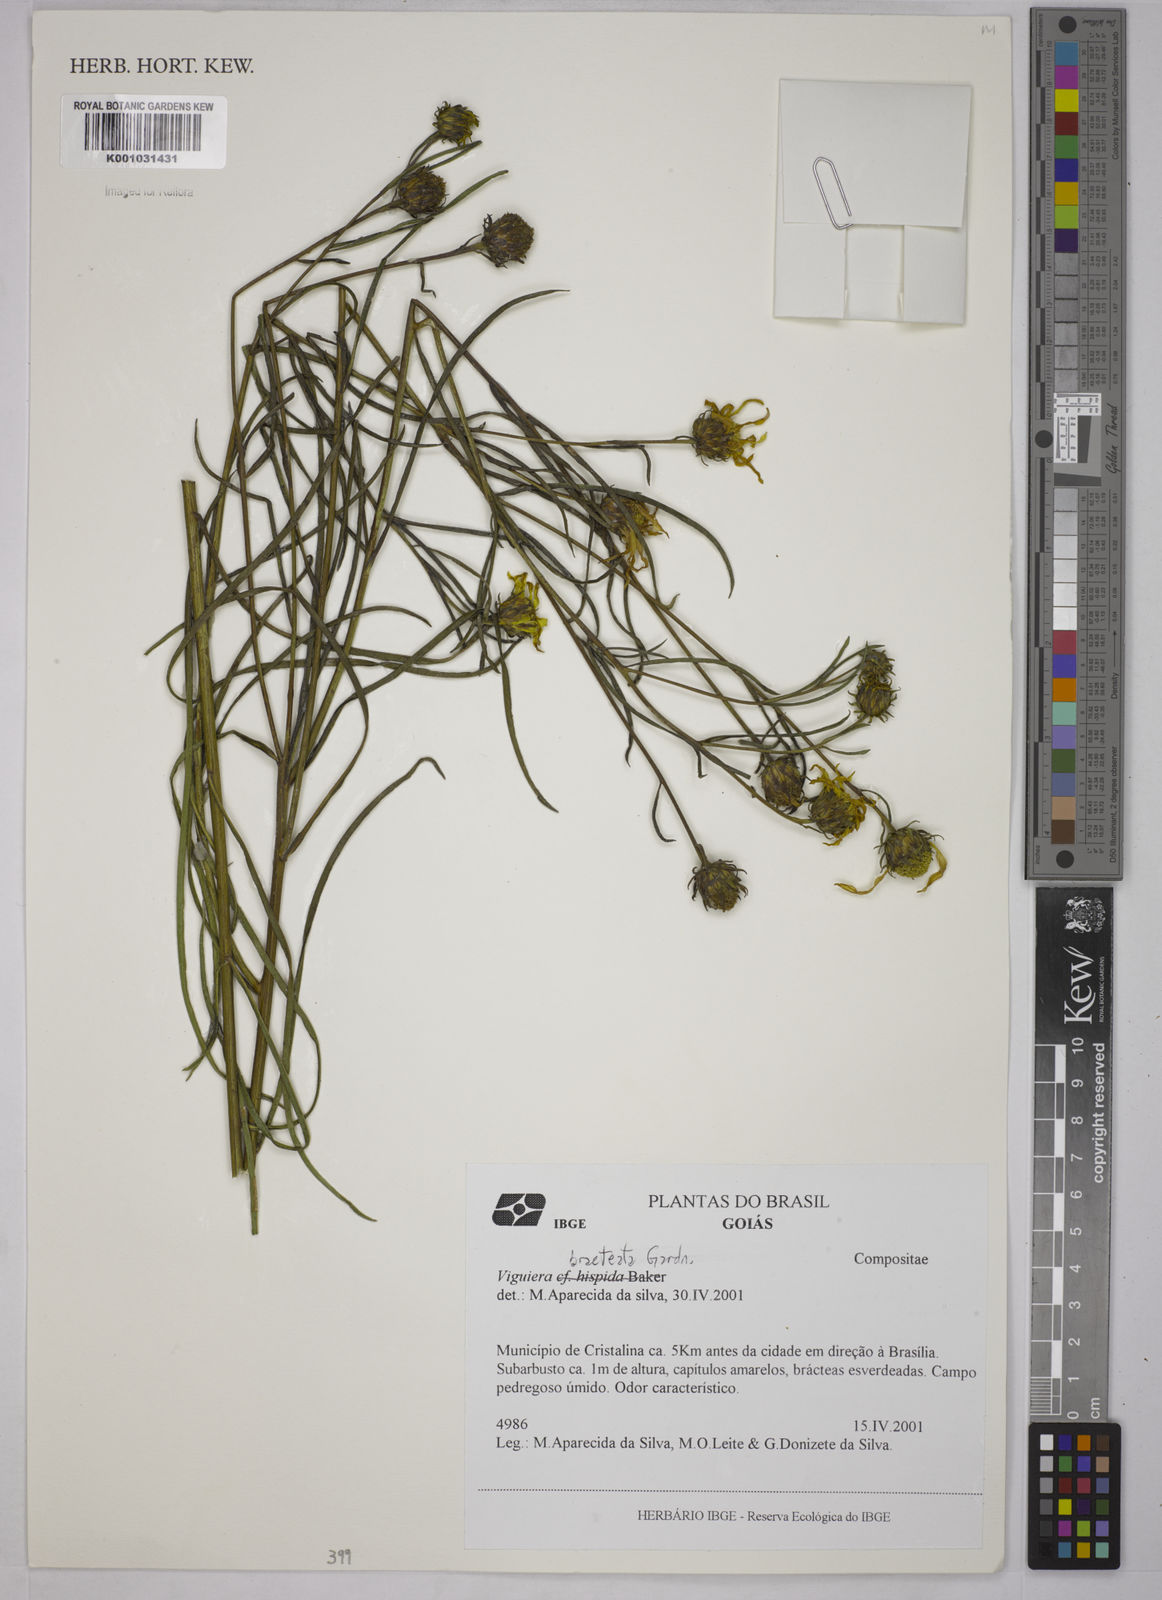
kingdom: Plantae
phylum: Tracheophyta
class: Magnoliopsida
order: Asterales
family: Asteraceae
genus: Aldama
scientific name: Aldama bracteata
